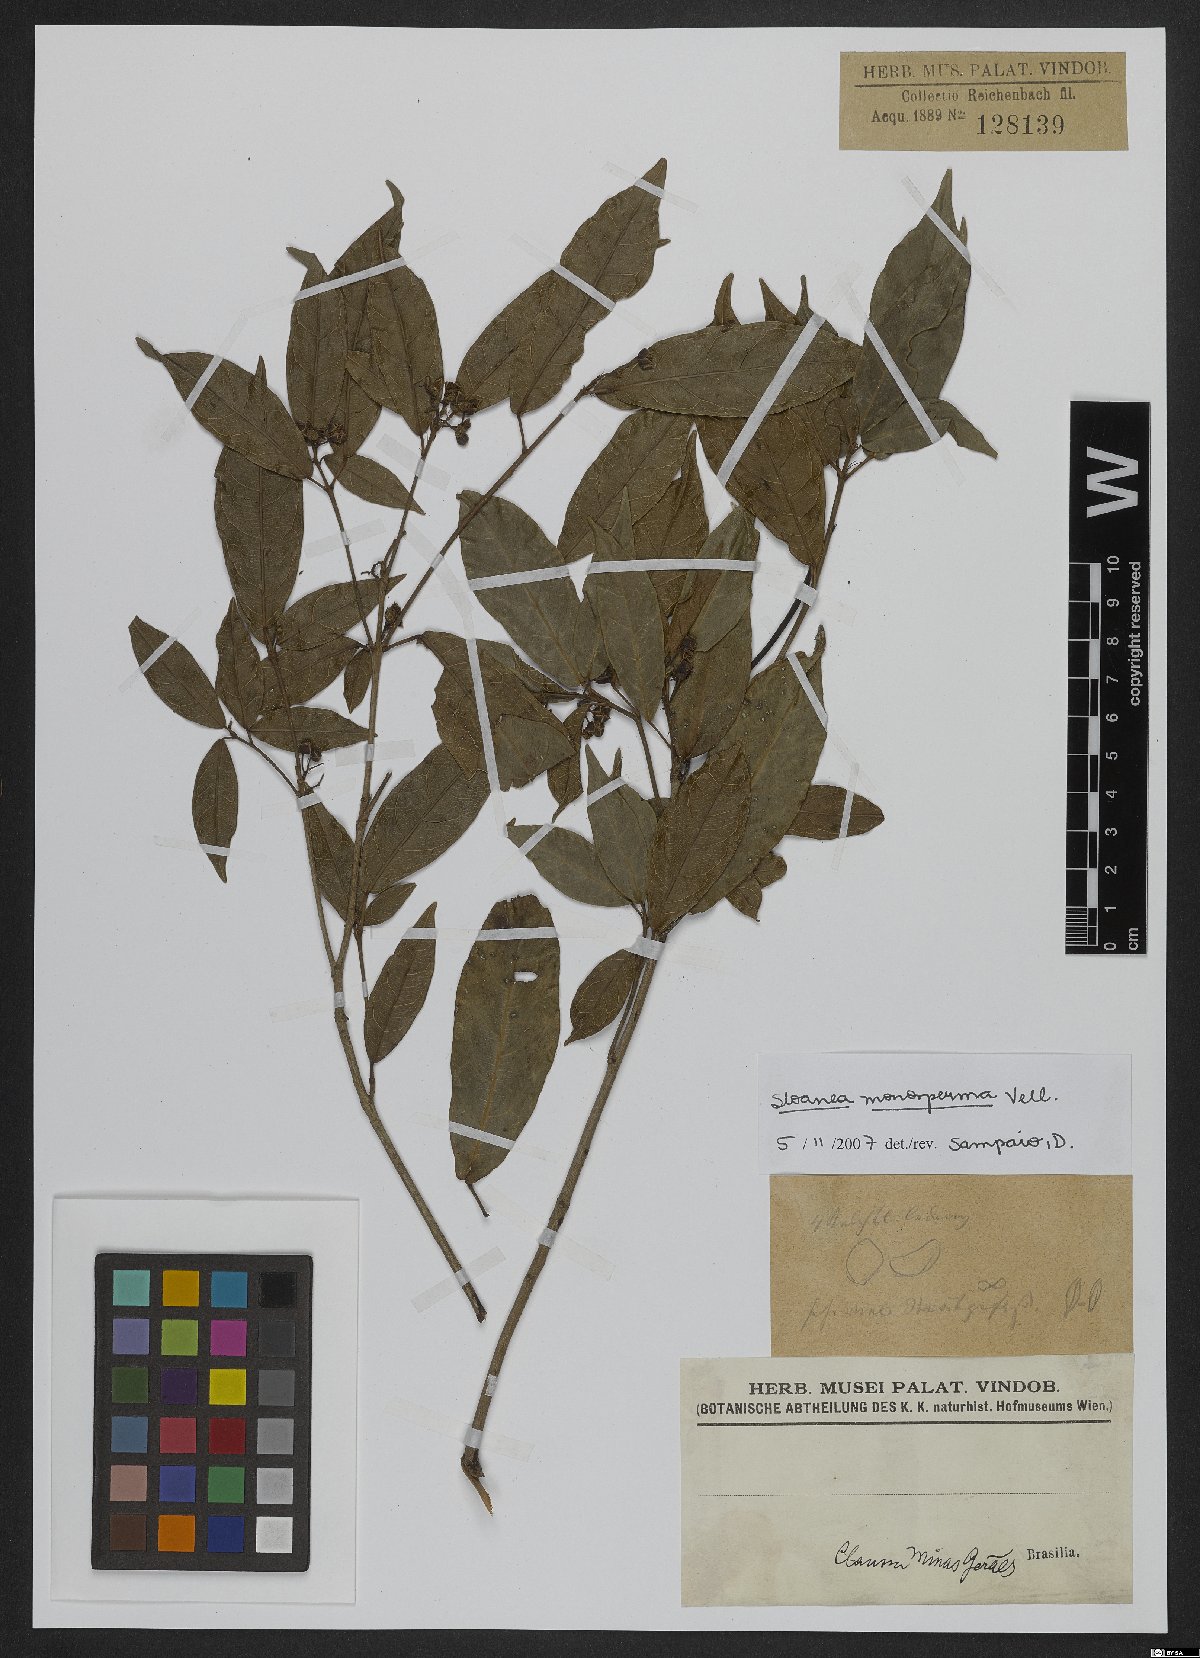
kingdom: Plantae
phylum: Tracheophyta
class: Magnoliopsida
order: Oxalidales
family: Elaeocarpaceae
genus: Sloanea
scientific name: Sloanea hirsuta
